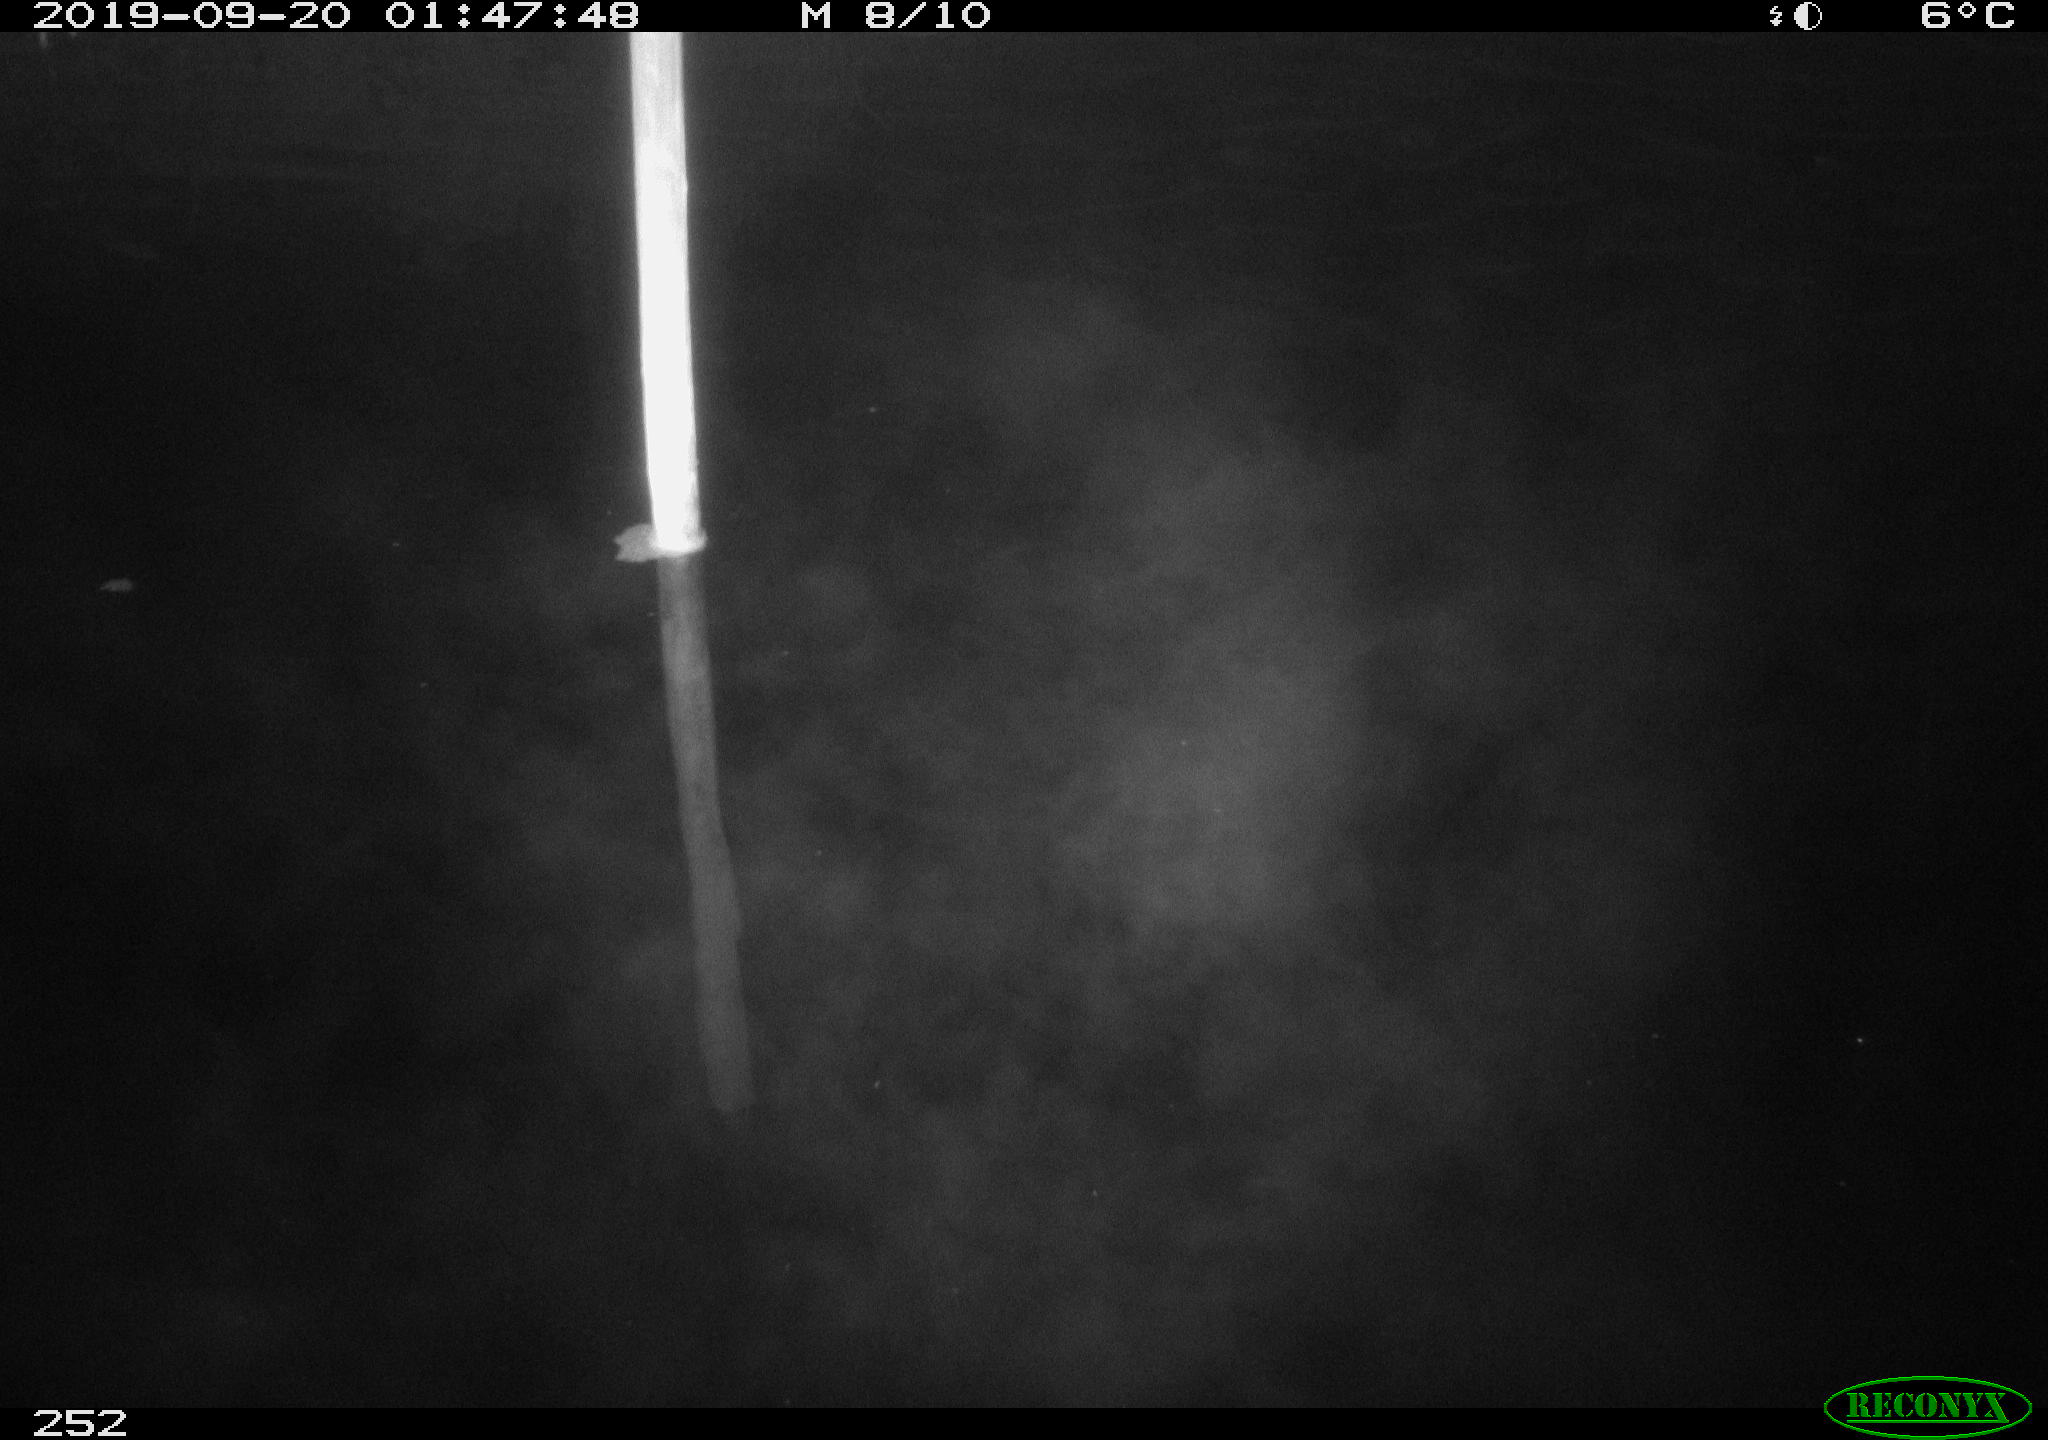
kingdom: Animalia
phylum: Chordata
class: Aves
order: Anseriformes
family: Anatidae
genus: Anas
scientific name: Anas platyrhynchos
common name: Mallard
